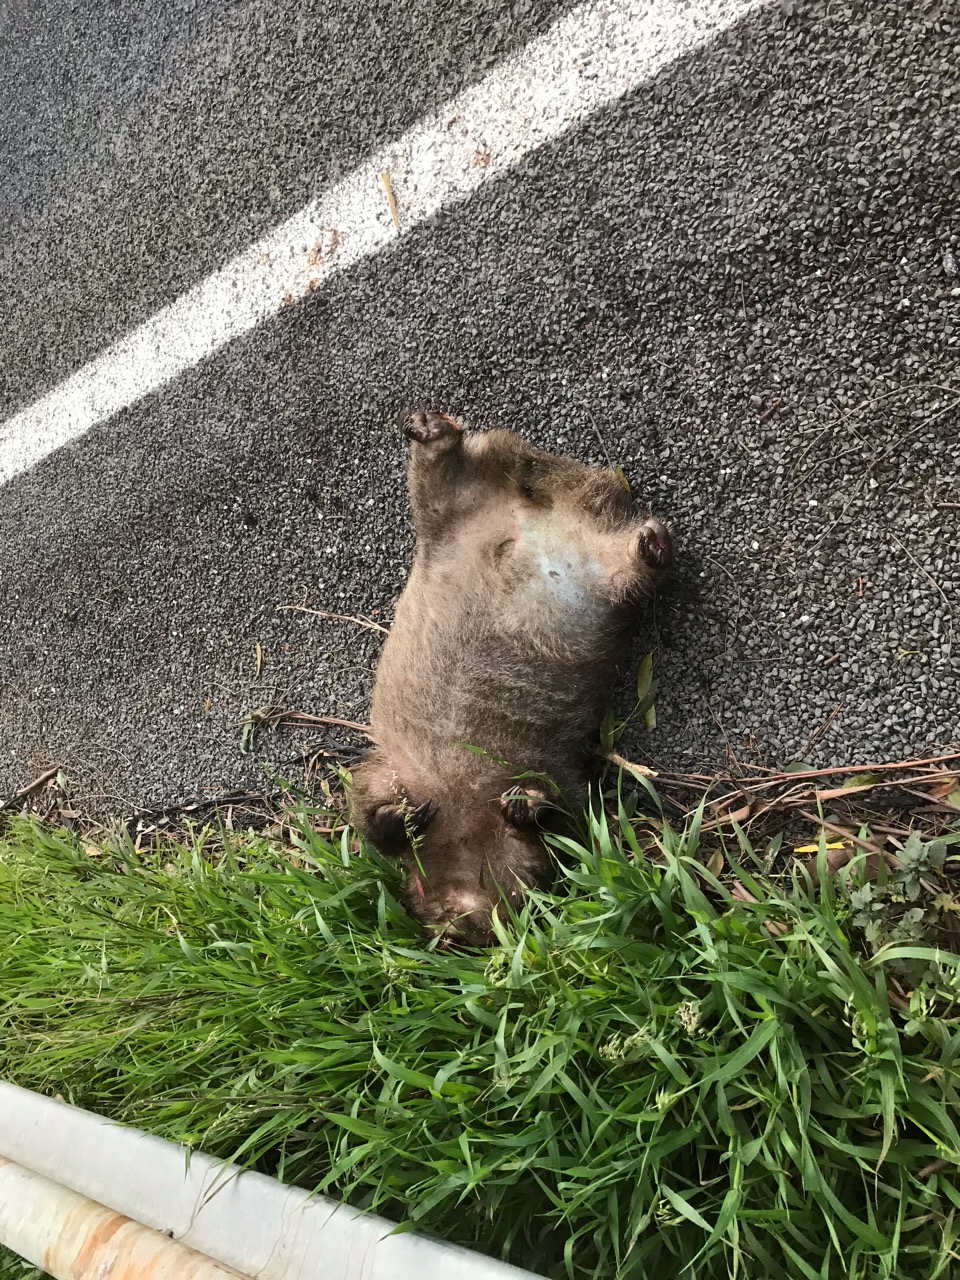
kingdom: Animalia
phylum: Chordata
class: Mammalia
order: Diprotodontia
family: Vombatidae
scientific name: Vombatidae
